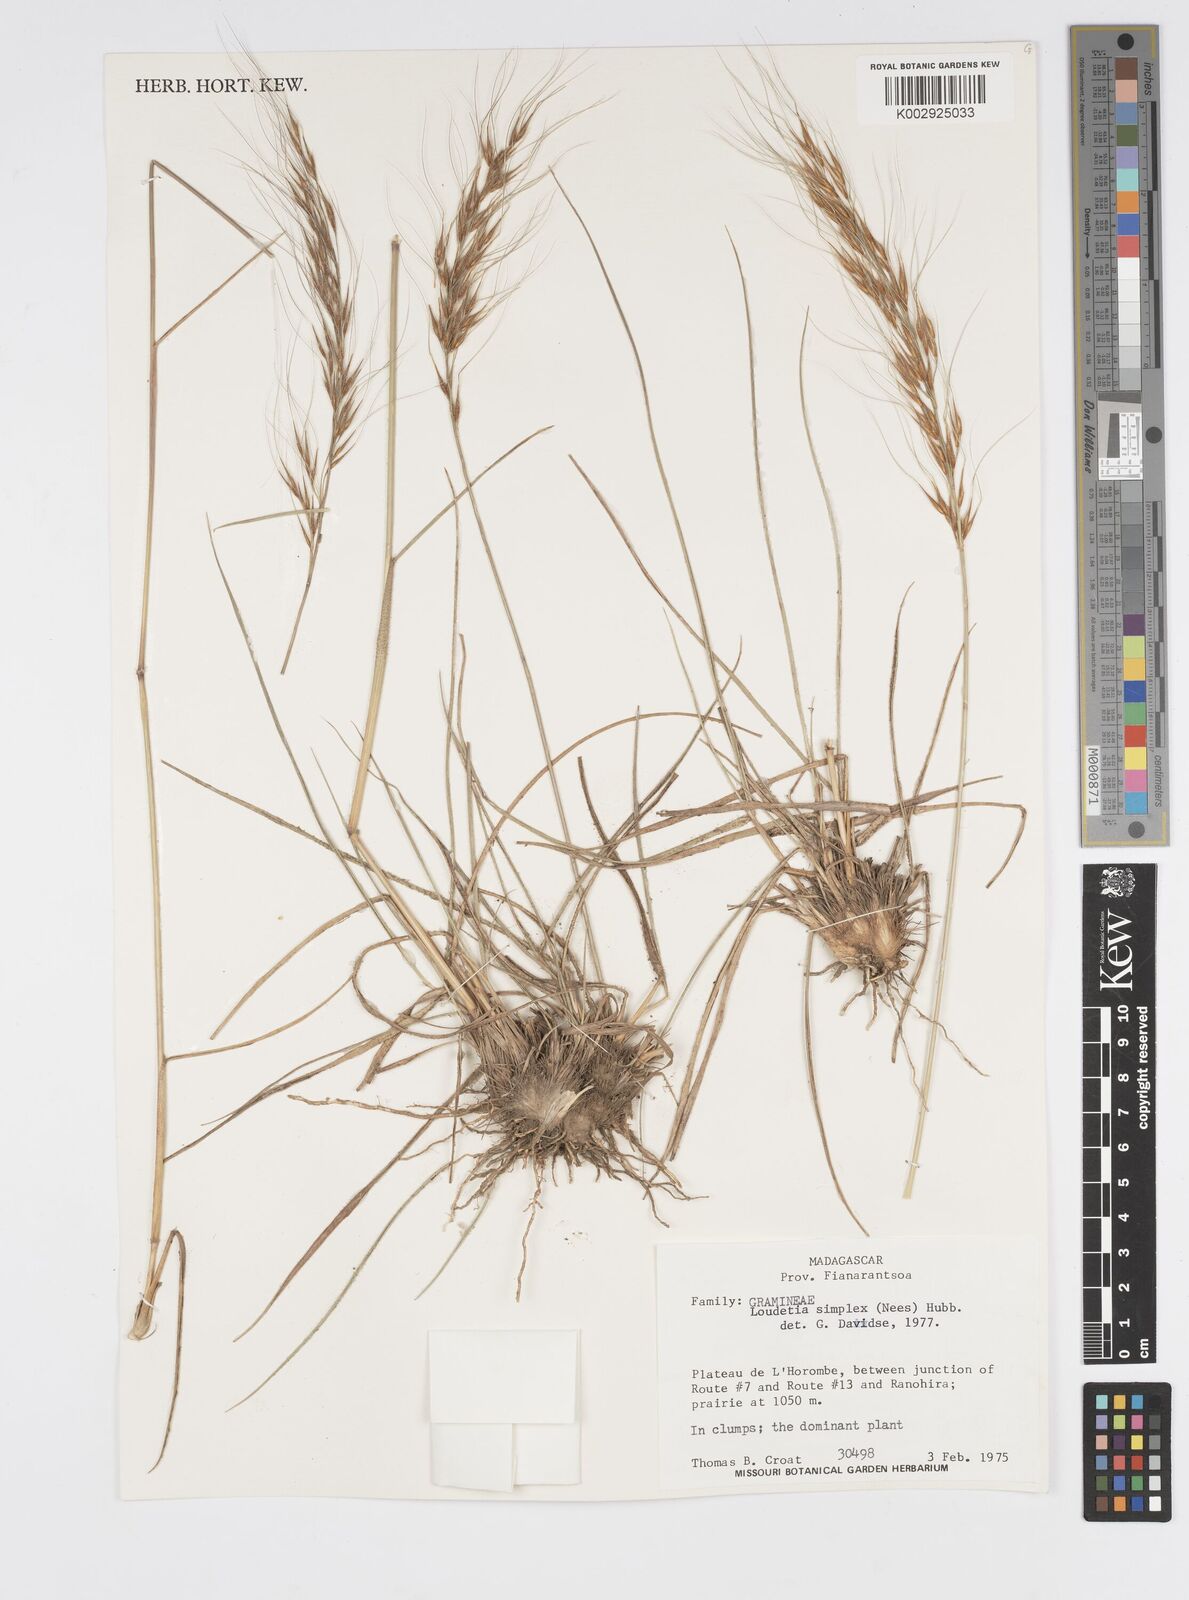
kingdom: Plantae
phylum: Tracheophyta
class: Liliopsida
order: Poales
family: Poaceae
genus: Loudetia
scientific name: Loudetia simplex
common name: Common russet grass
